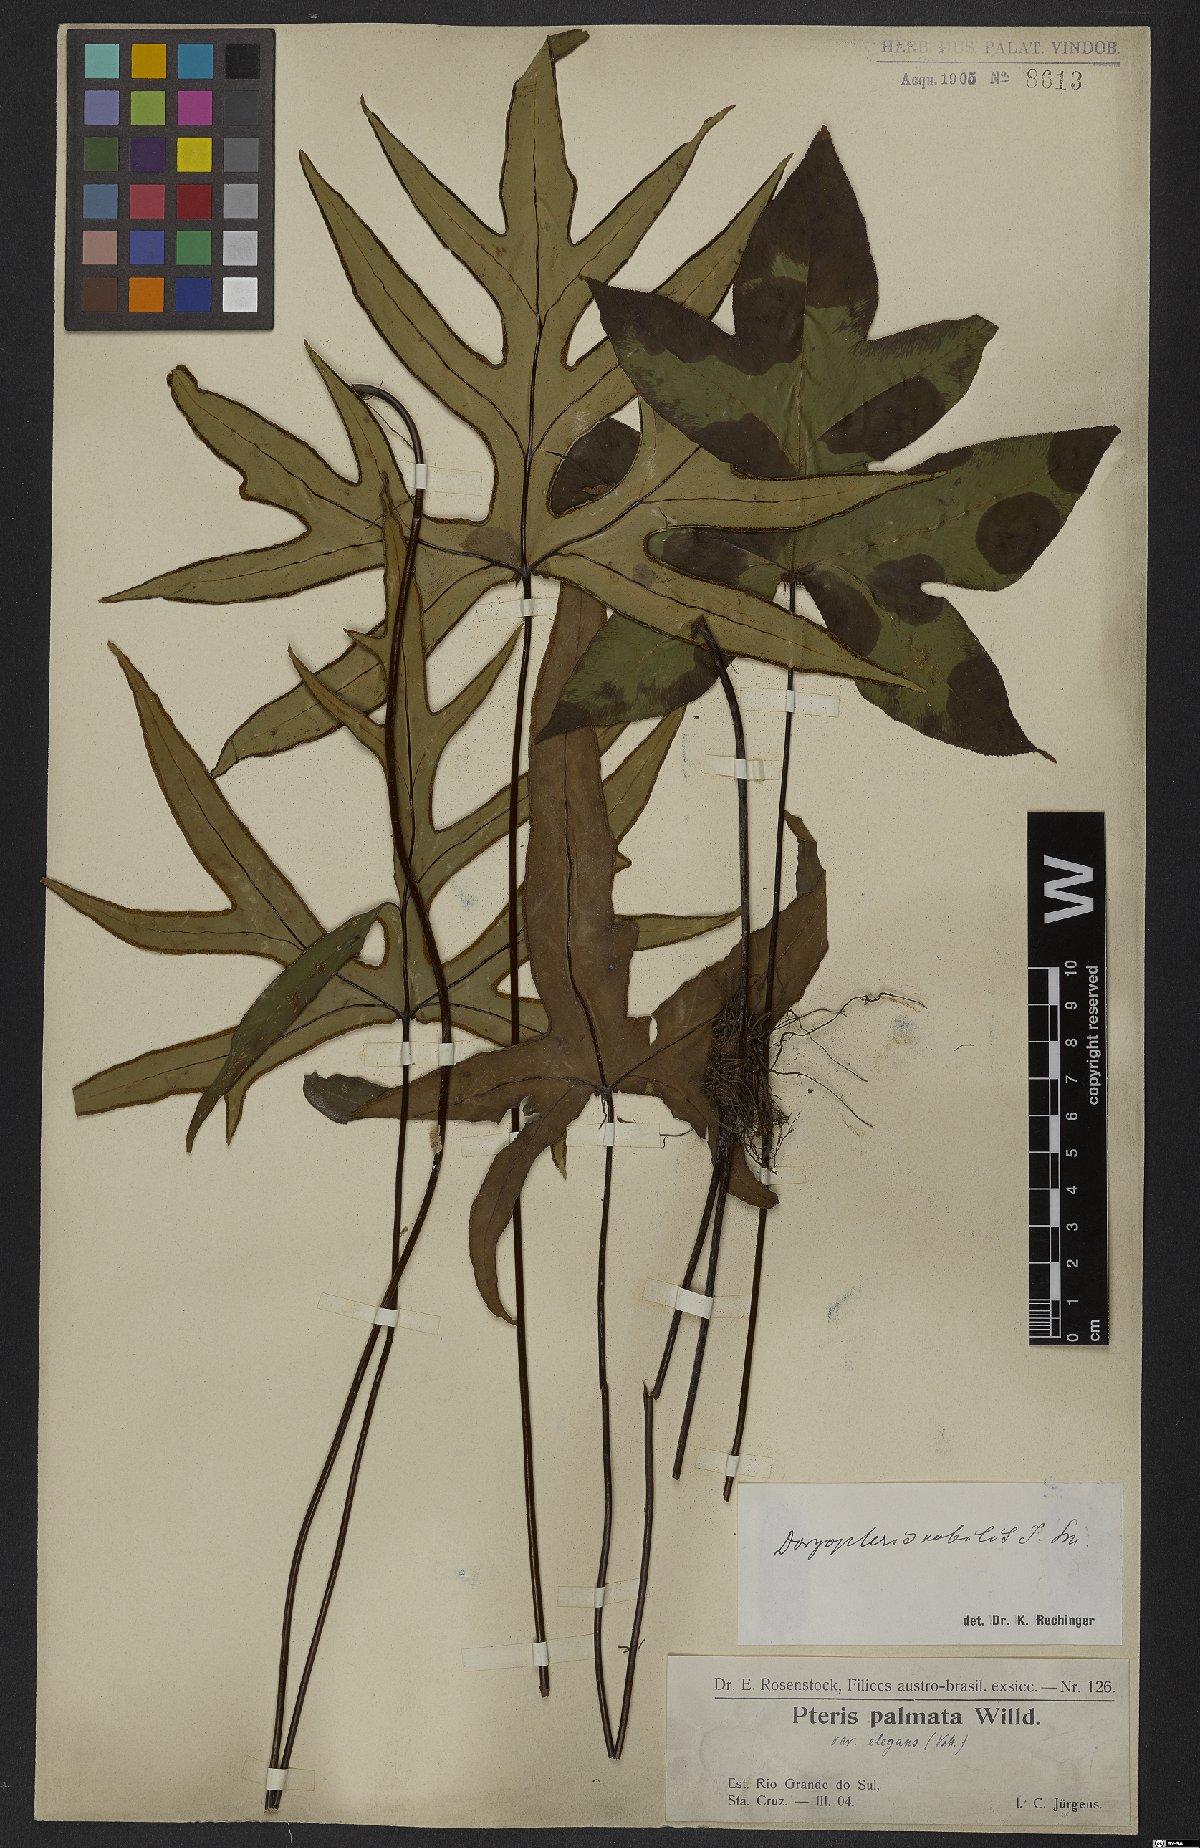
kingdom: Plantae
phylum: Tracheophyta
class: Polypodiopsida
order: Polypodiales
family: Pteridaceae
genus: Doryopteris
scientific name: Doryopteris nobilis
